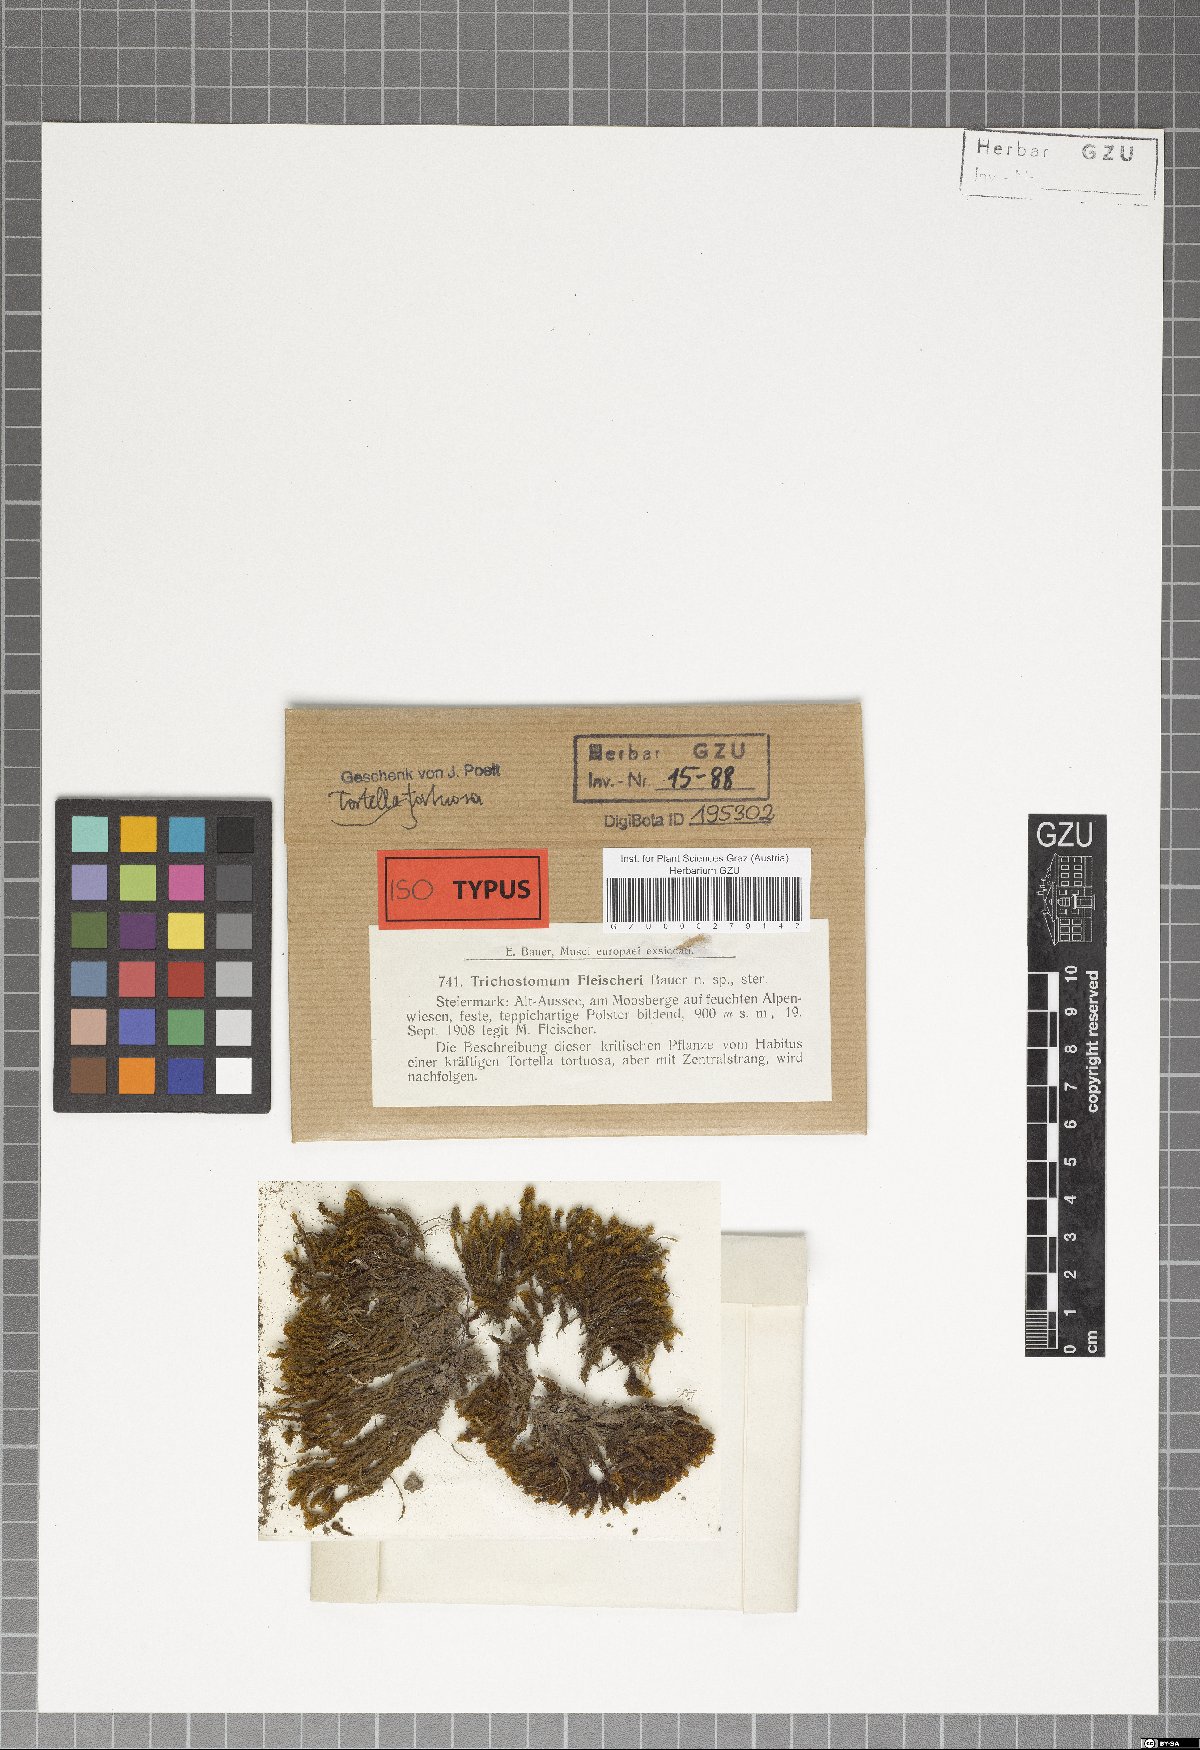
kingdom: Plantae
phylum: Bryophyta
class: Bryopsida
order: Pottiales
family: Pottiaceae
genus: Tortella
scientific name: Tortella tortuosa
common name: Frizzled crisp moss
